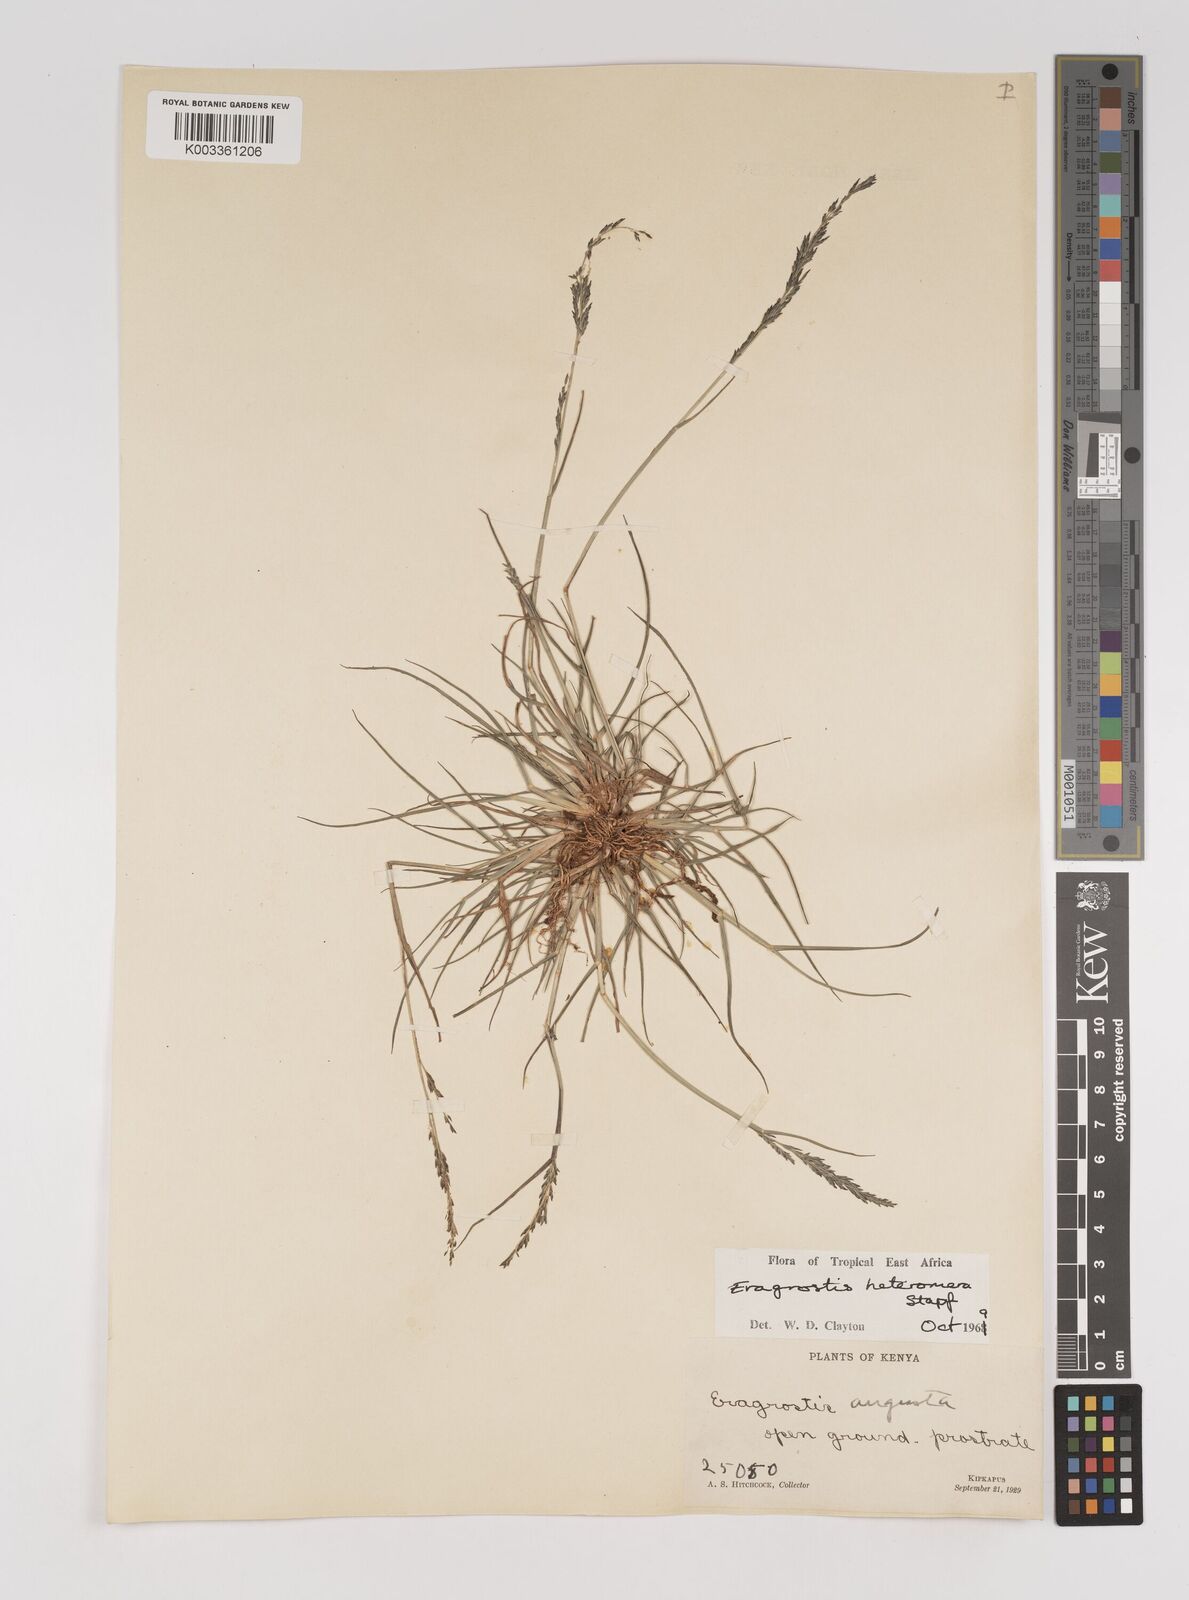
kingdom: Plantae
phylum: Tracheophyta
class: Liliopsida
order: Poales
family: Poaceae
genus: Eragrostis
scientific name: Eragrostis heteromera
